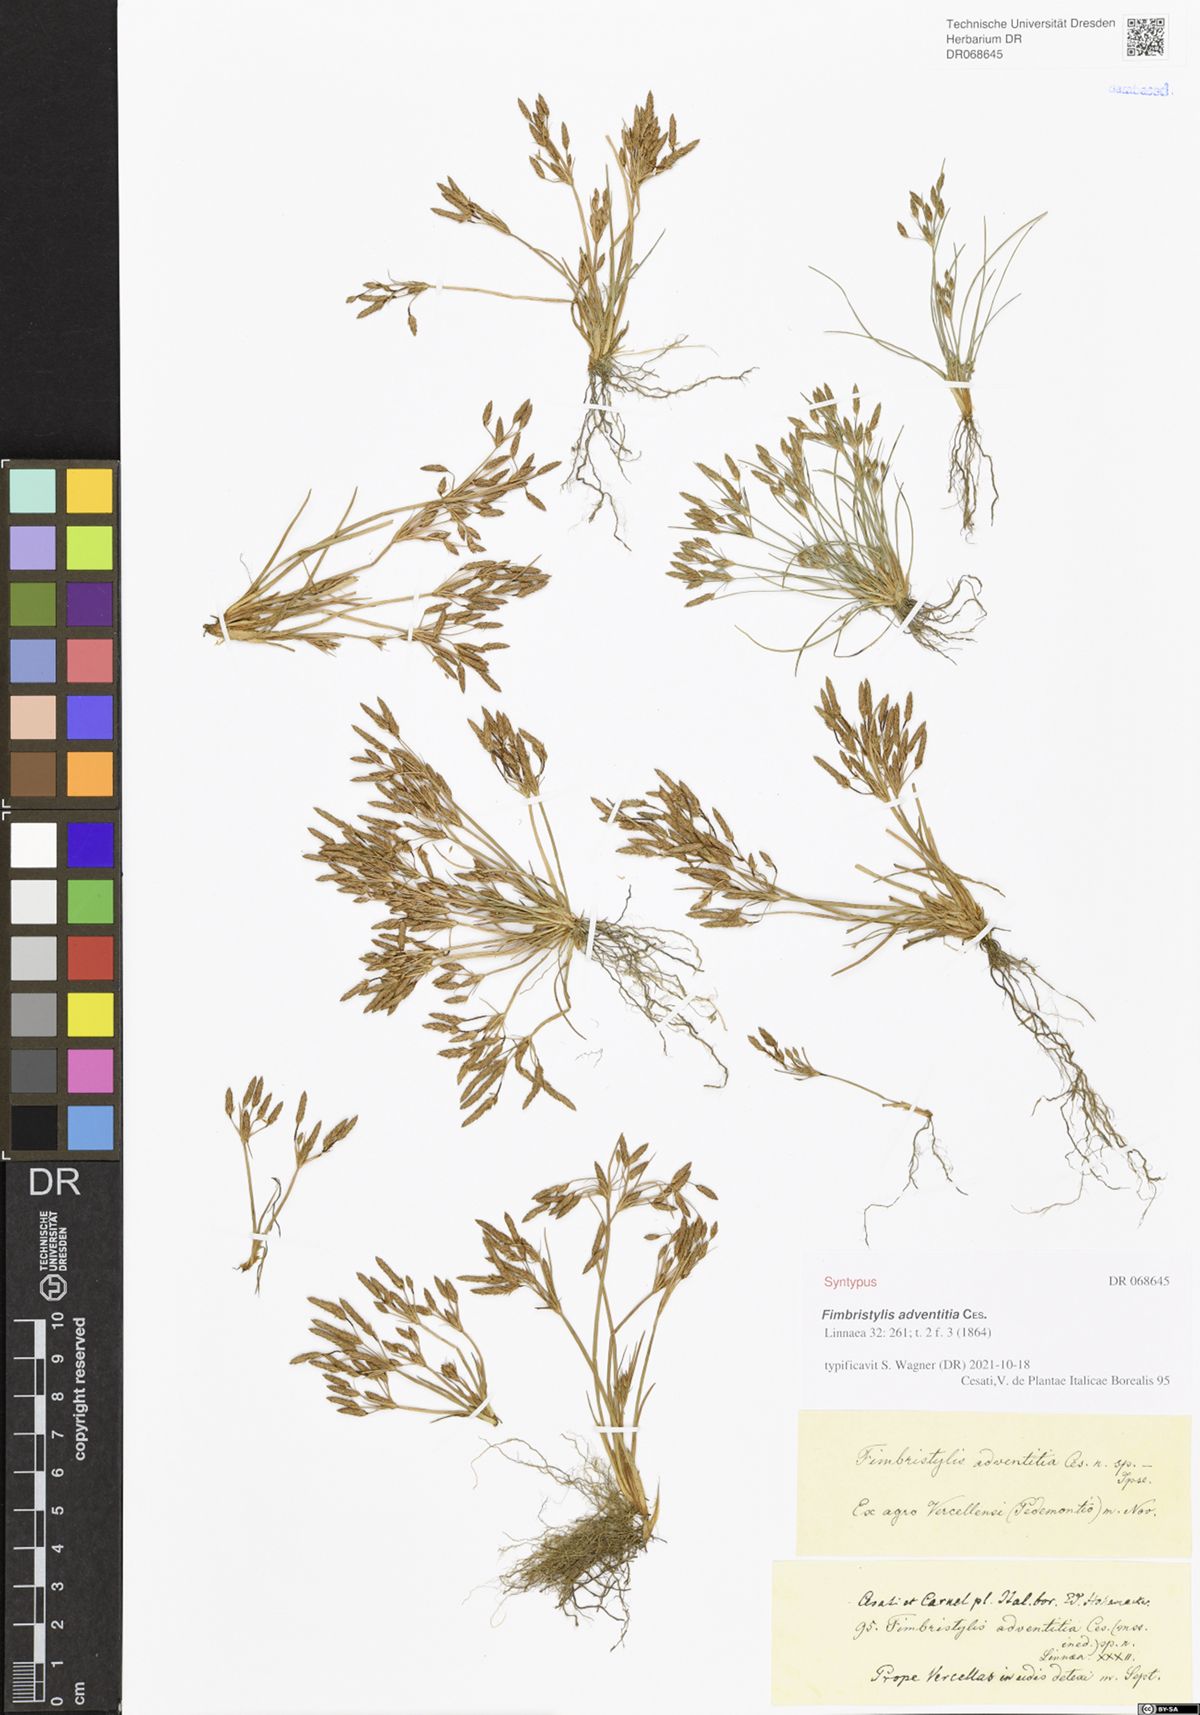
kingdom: Plantae
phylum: Tracheophyta
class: Liliopsida
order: Poales
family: Cyperaceae
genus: Fimbristylis
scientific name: Fimbristylis adventitia
